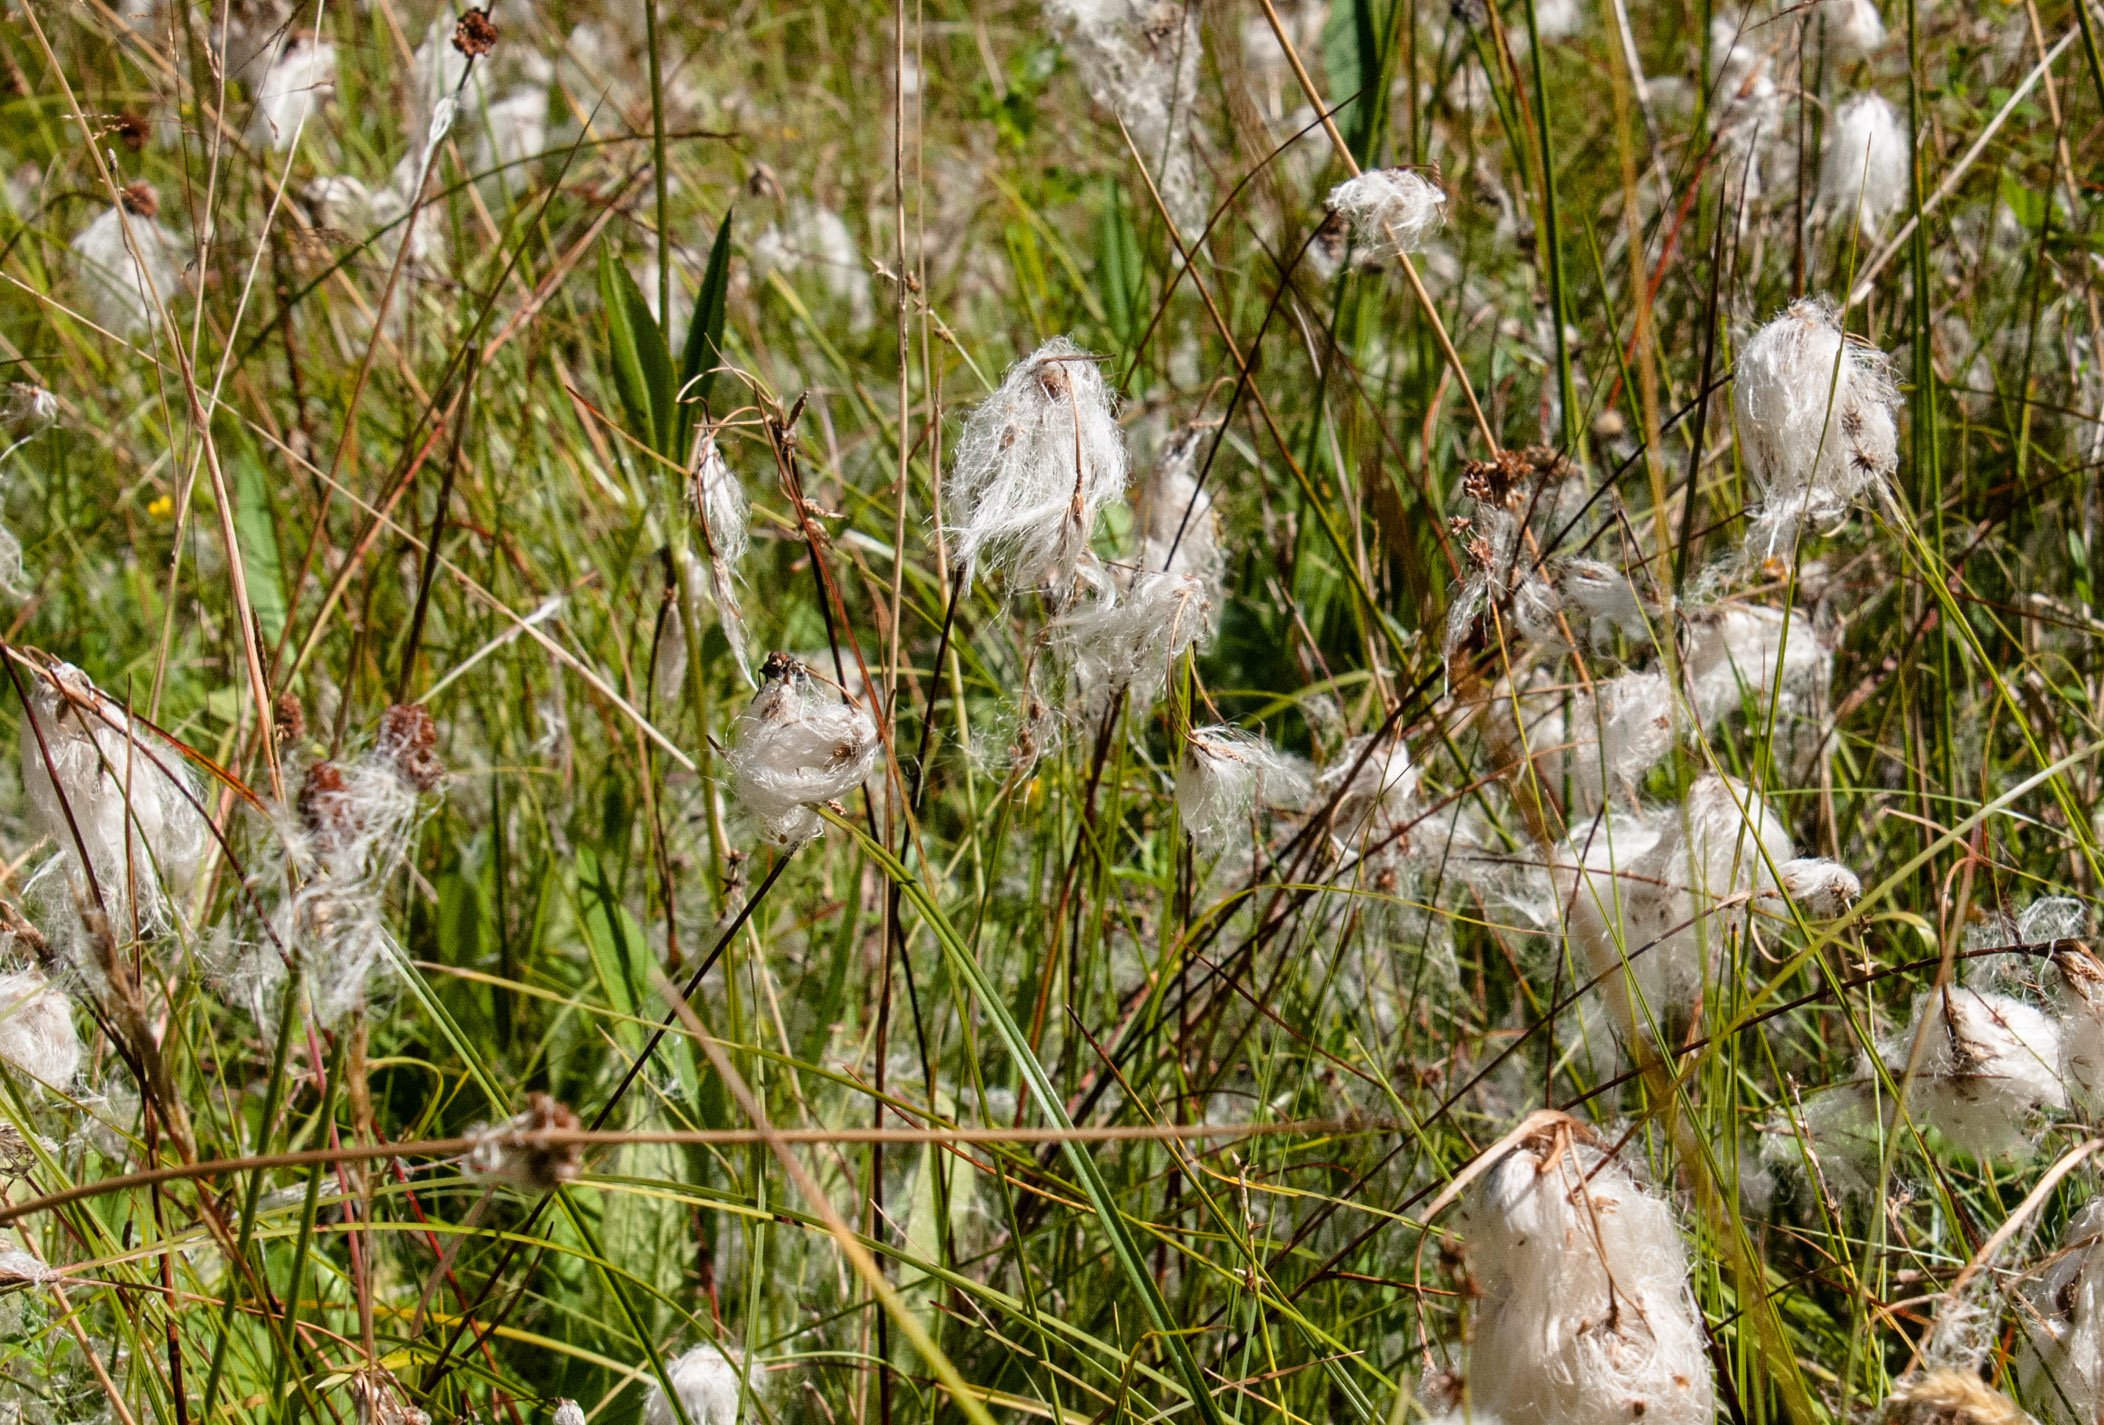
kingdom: Plantae
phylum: Tracheophyta
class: Liliopsida
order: Poales
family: Cyperaceae
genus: Eriophorum
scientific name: Eriophorum angustifolium
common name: Common cottongrass
